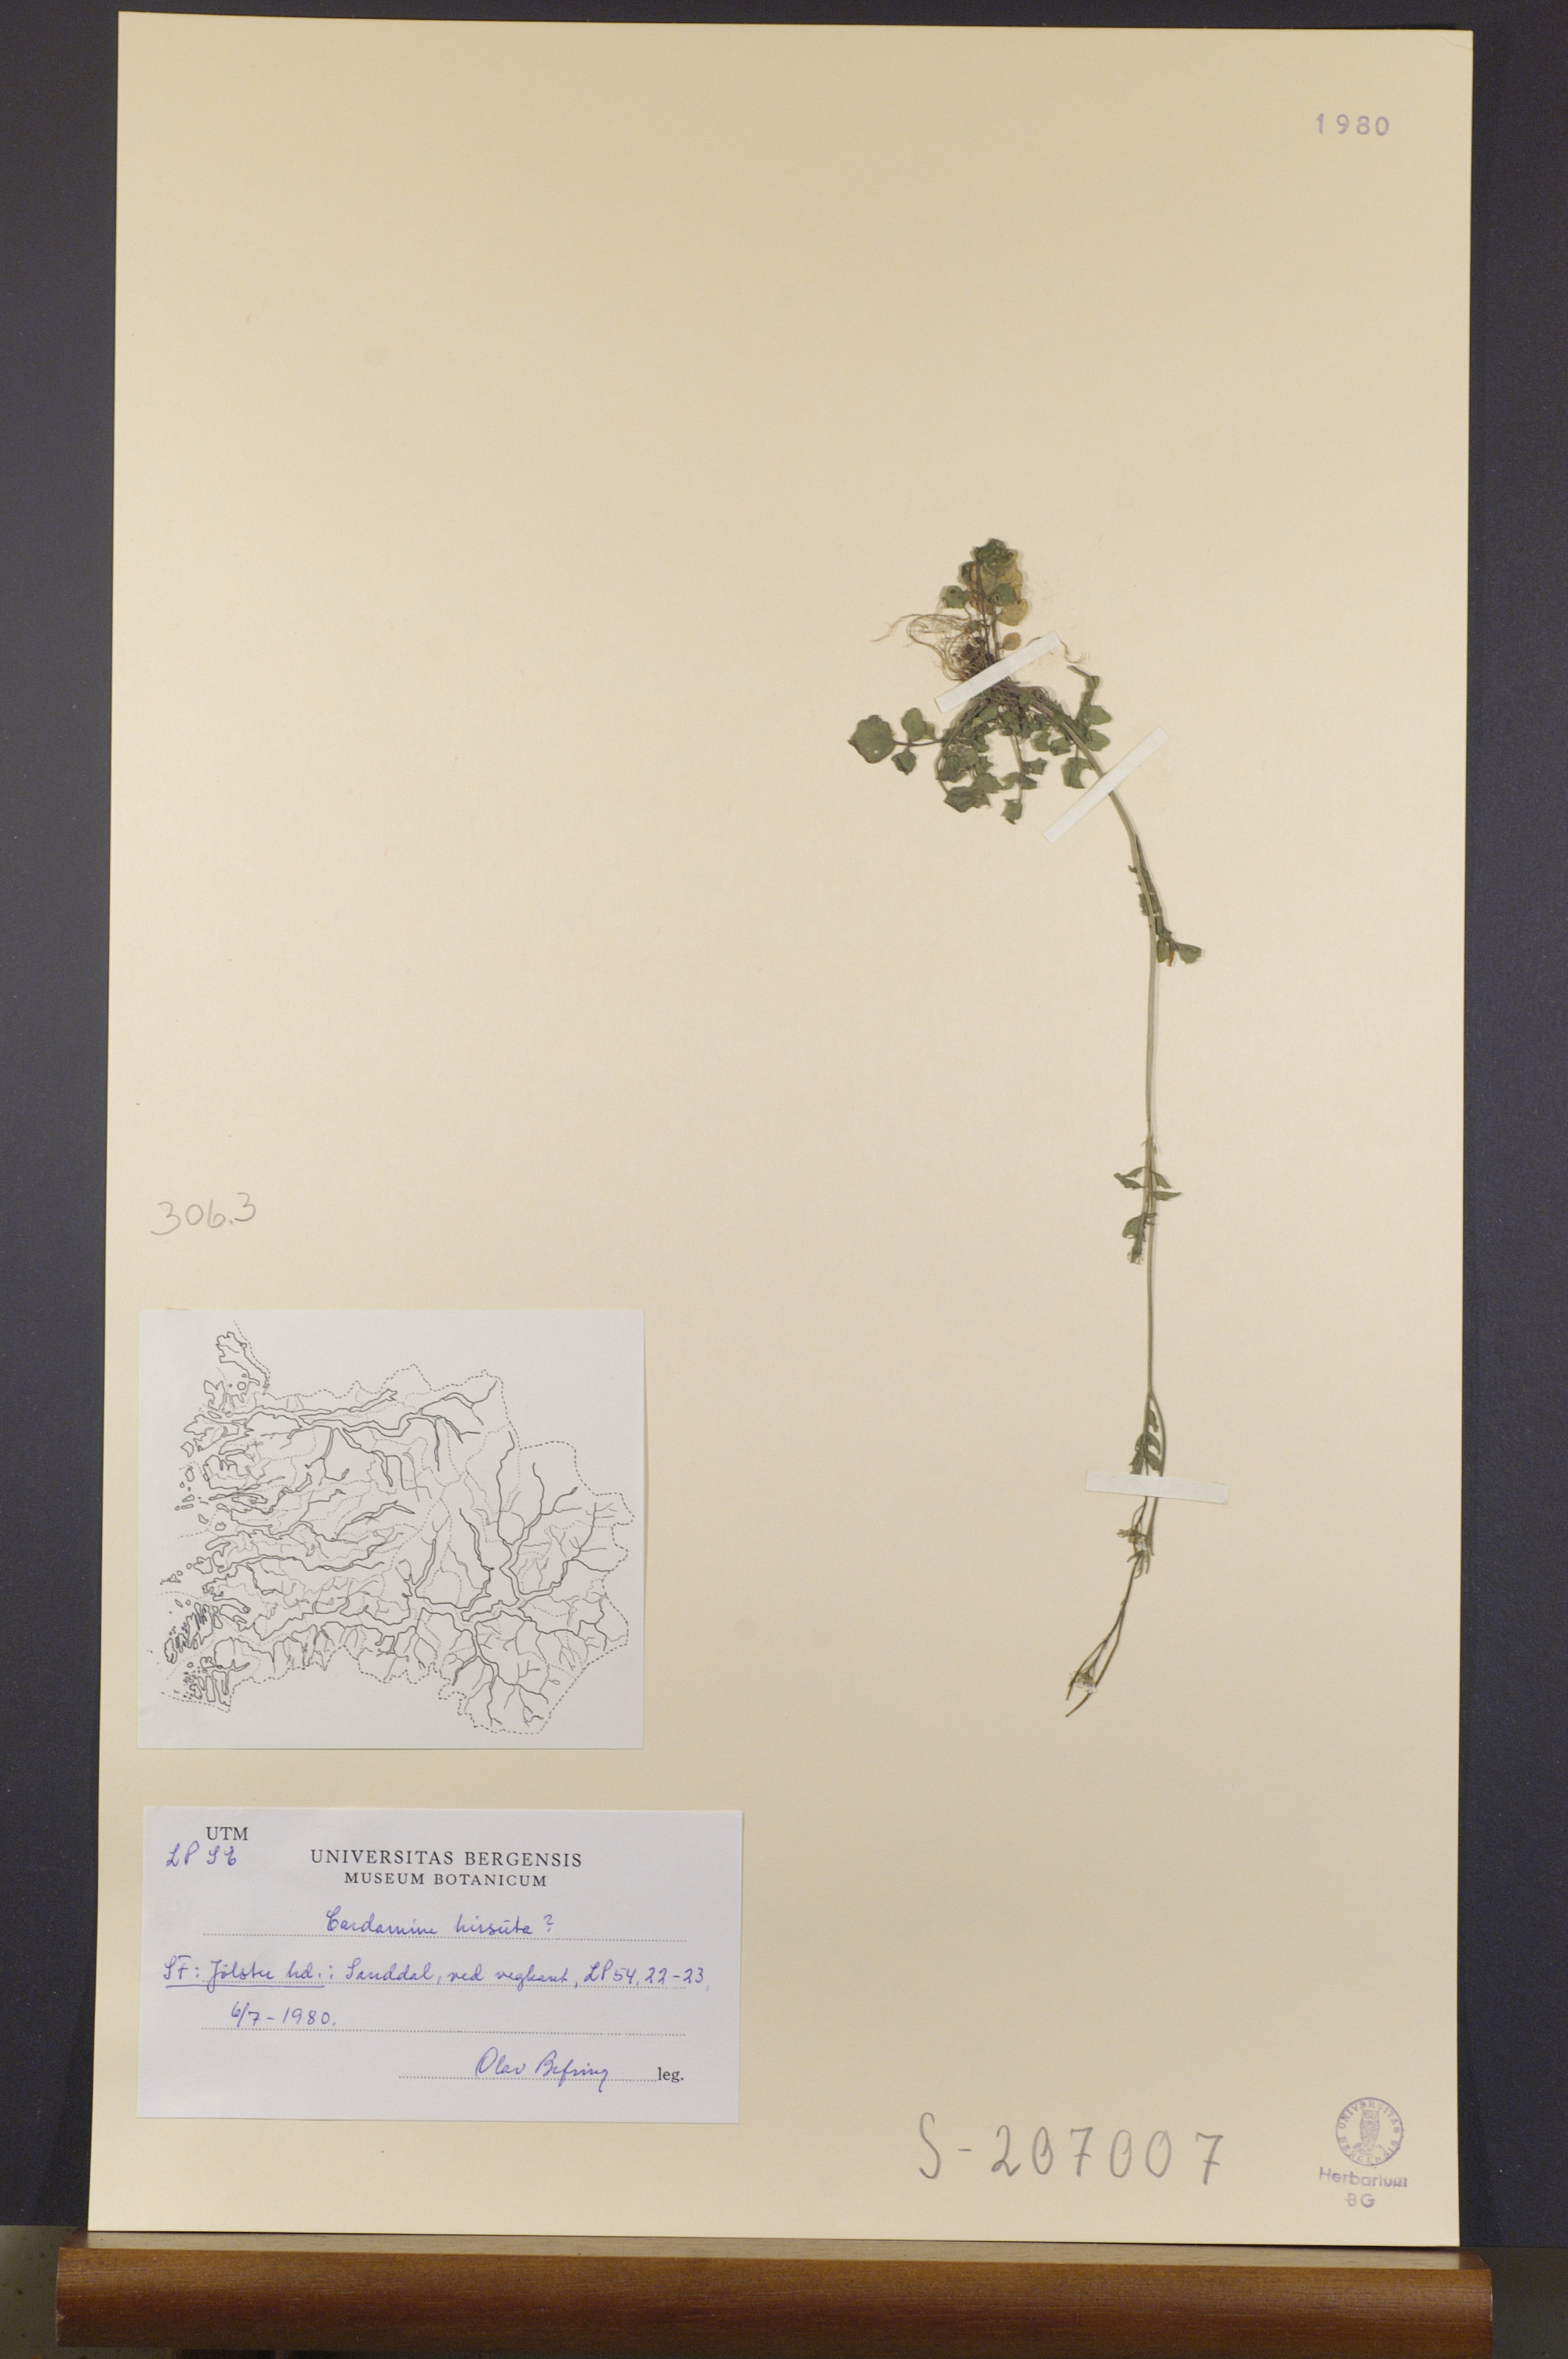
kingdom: Plantae
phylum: Tracheophyta
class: Magnoliopsida
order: Brassicales
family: Brassicaceae
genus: Cardamine
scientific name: Cardamine hirsuta
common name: Hairy bittercress
